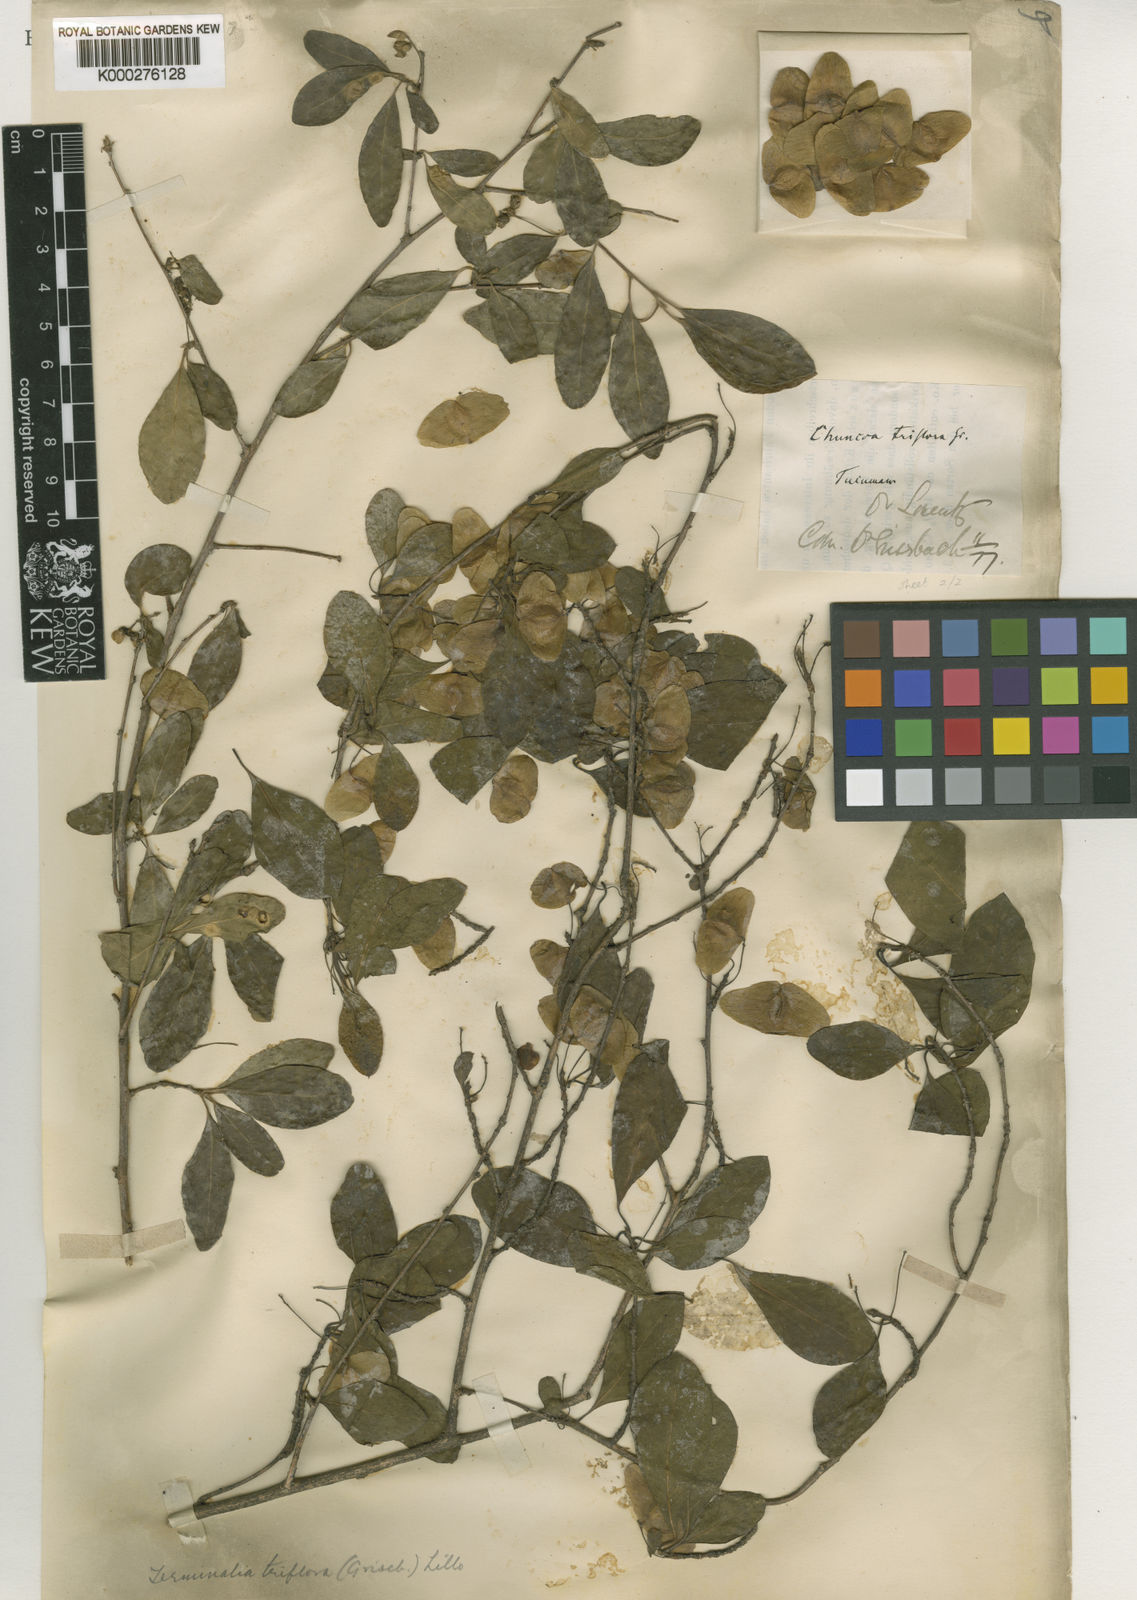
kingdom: Plantae
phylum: Tracheophyta
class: Magnoliopsida
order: Myrtales
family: Combretaceae
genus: Terminalia
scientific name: Terminalia triflora
